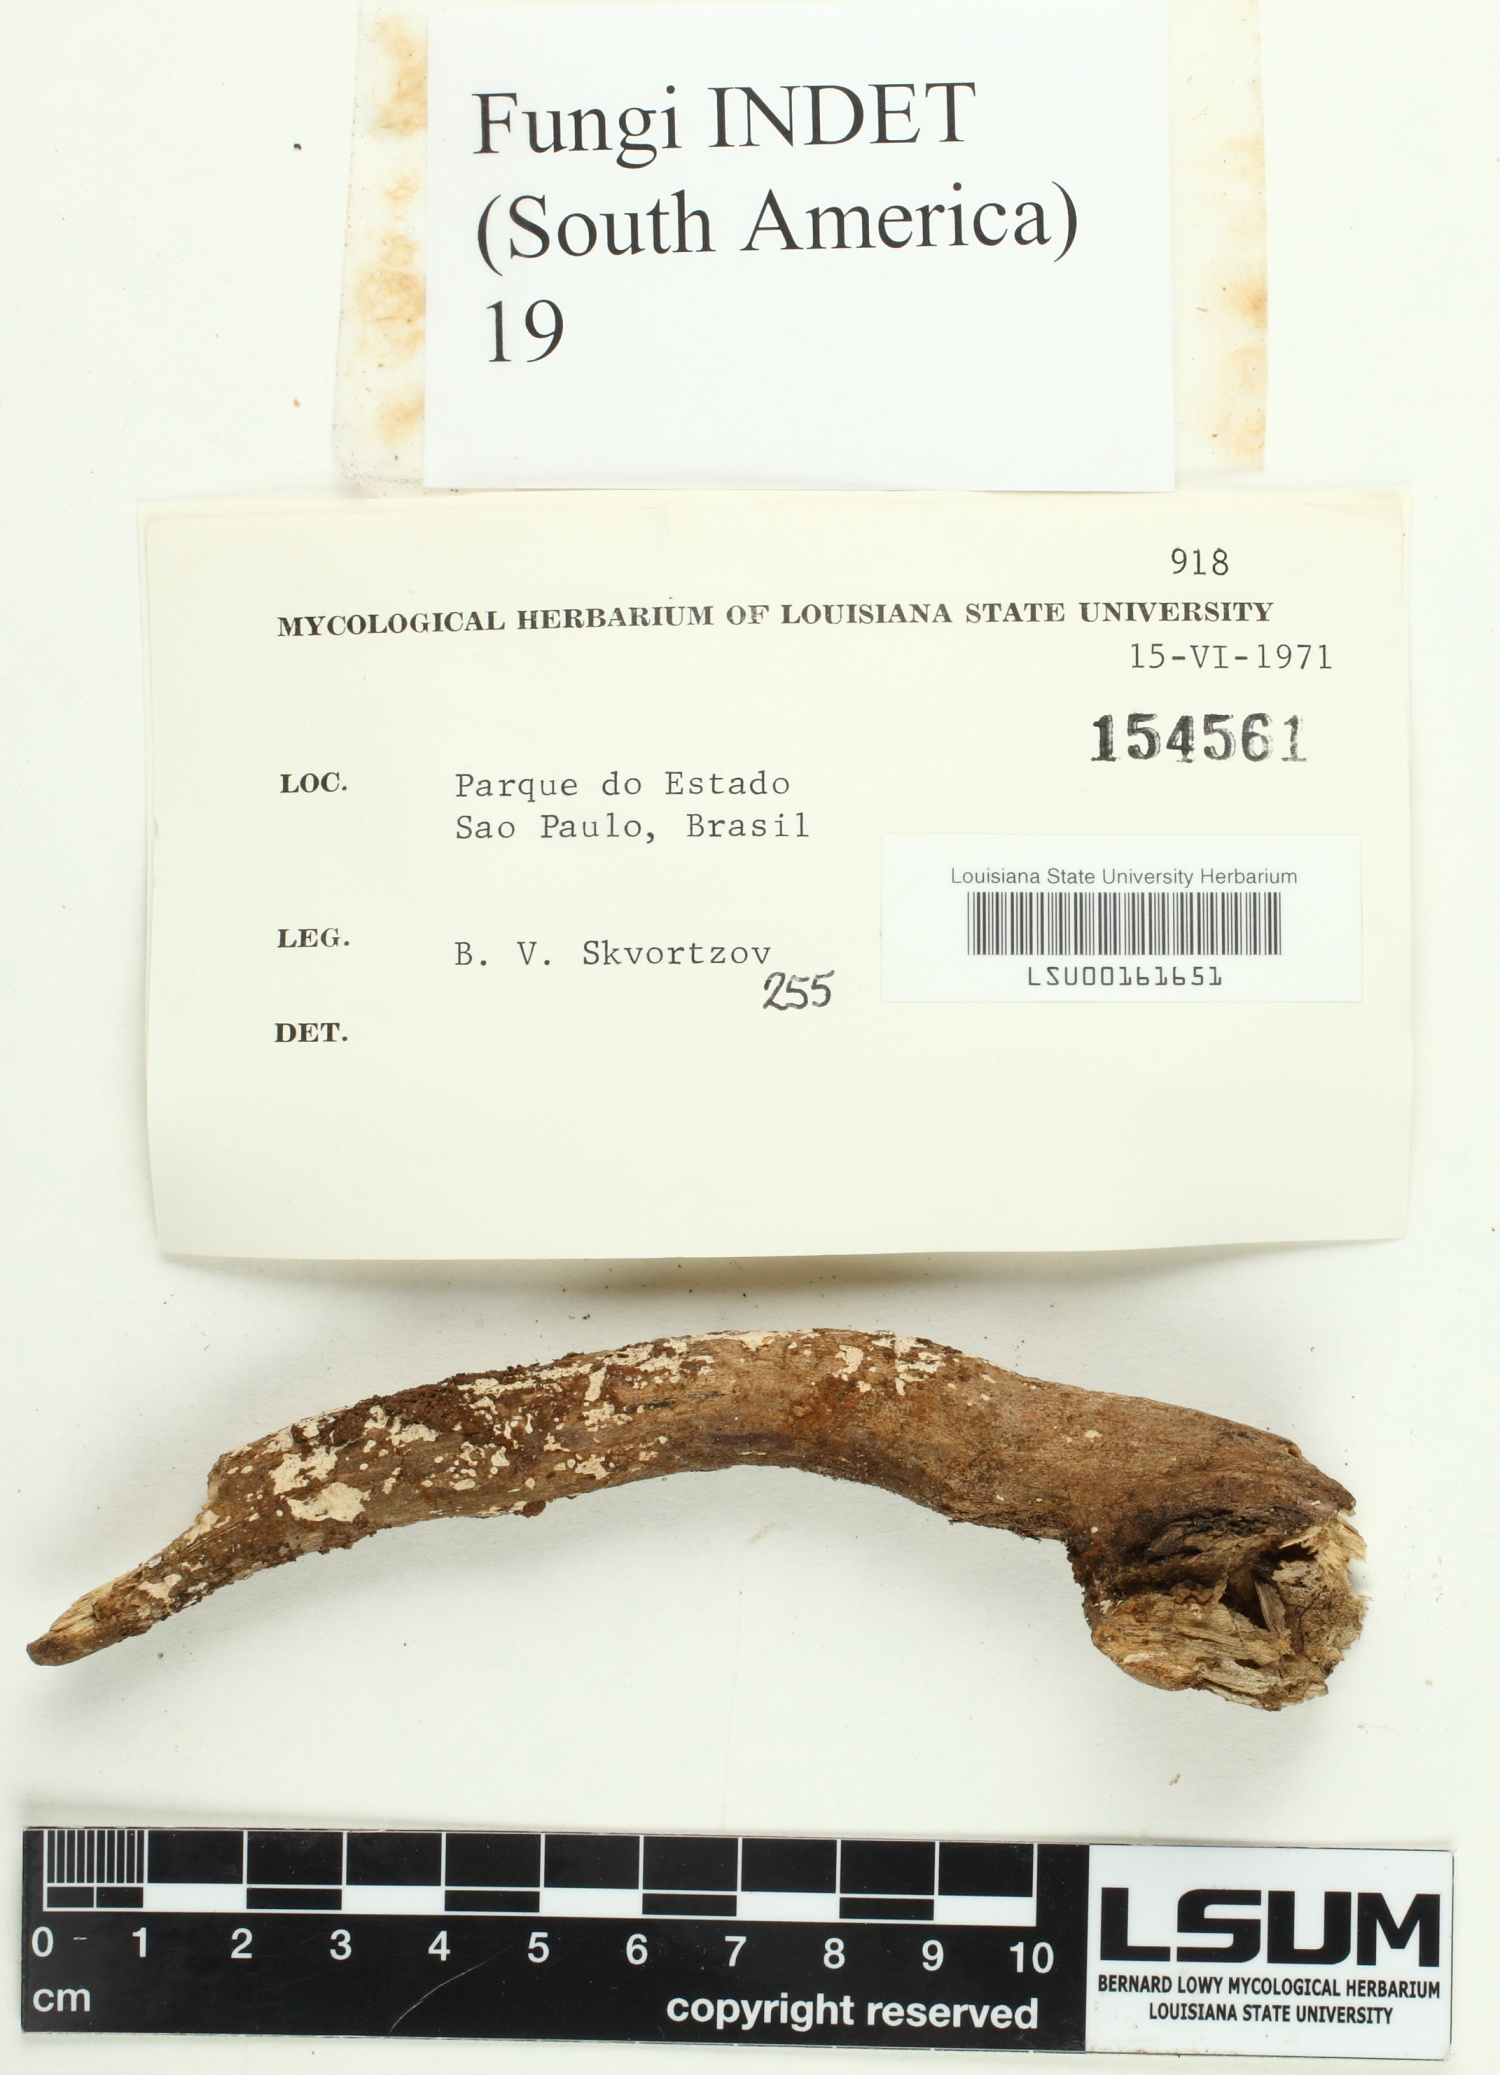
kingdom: Fungi
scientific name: Fungi
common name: Fungi
